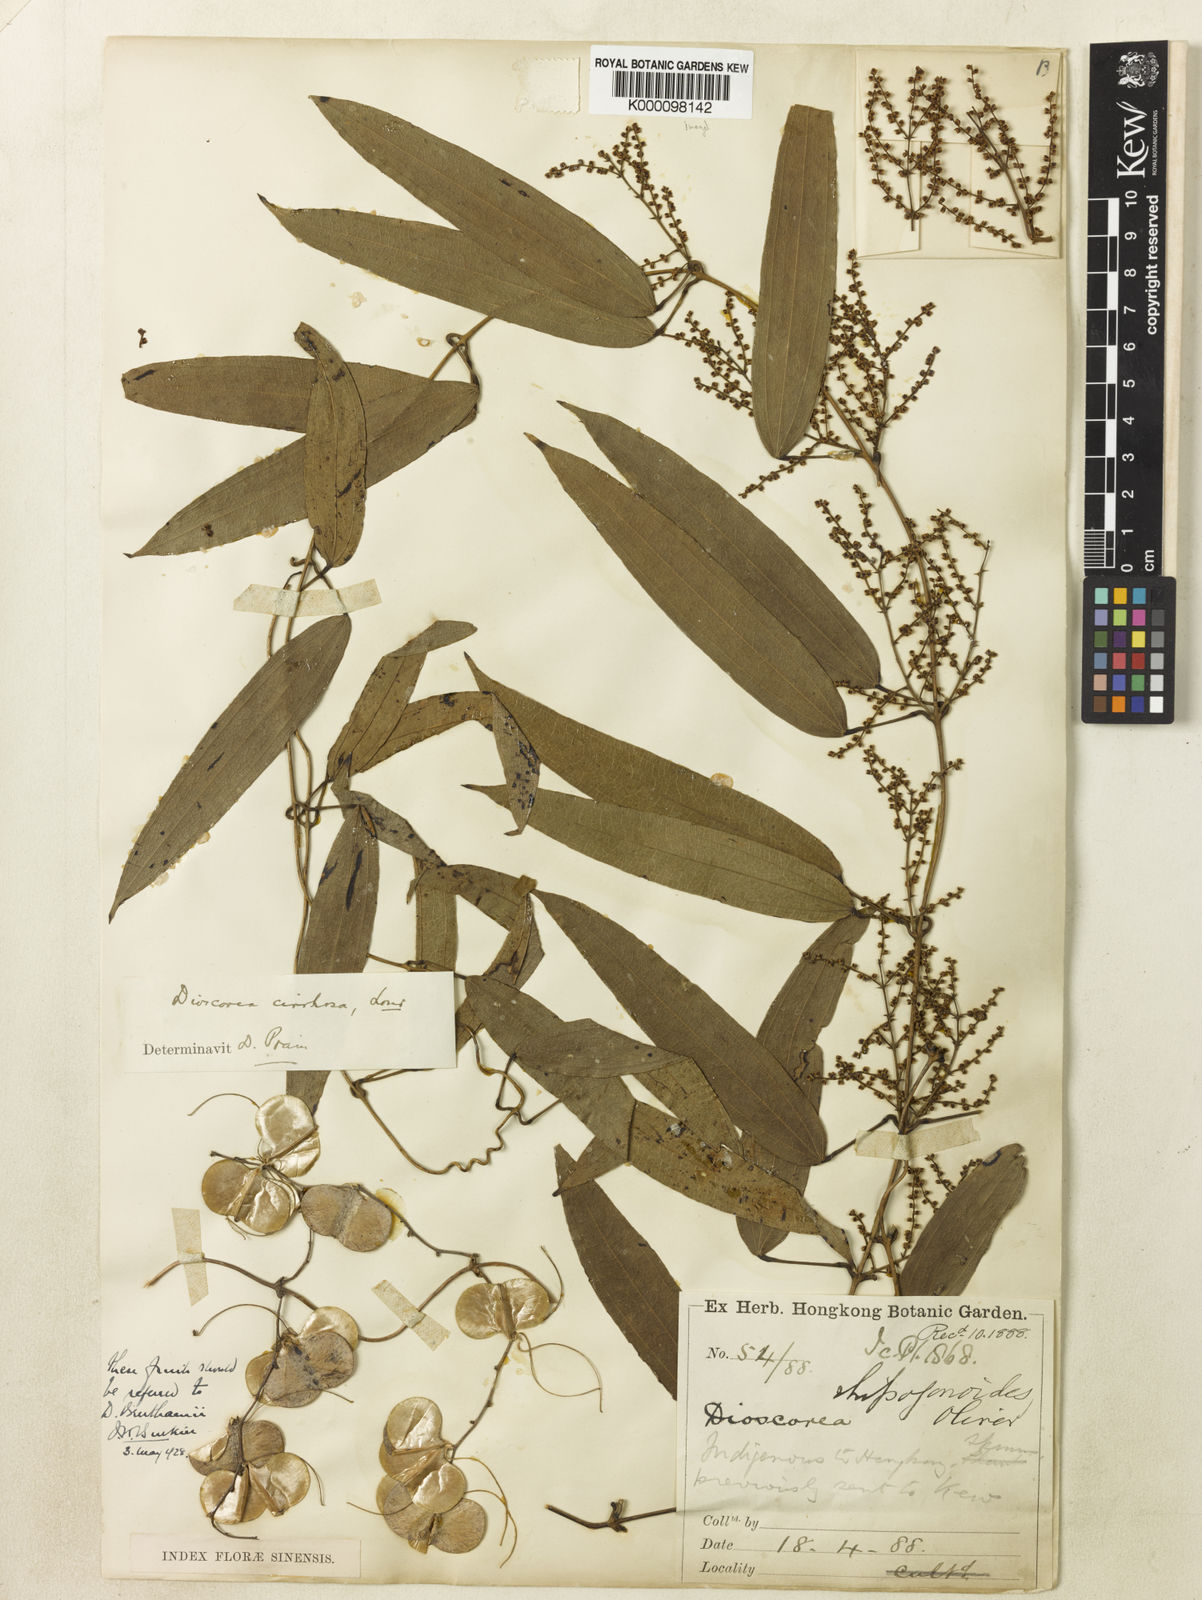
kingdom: Plantae
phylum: Tracheophyta
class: Liliopsida
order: Dioscoreales
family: Dioscoreaceae
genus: Dioscorea
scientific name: Dioscorea cirrhosa
